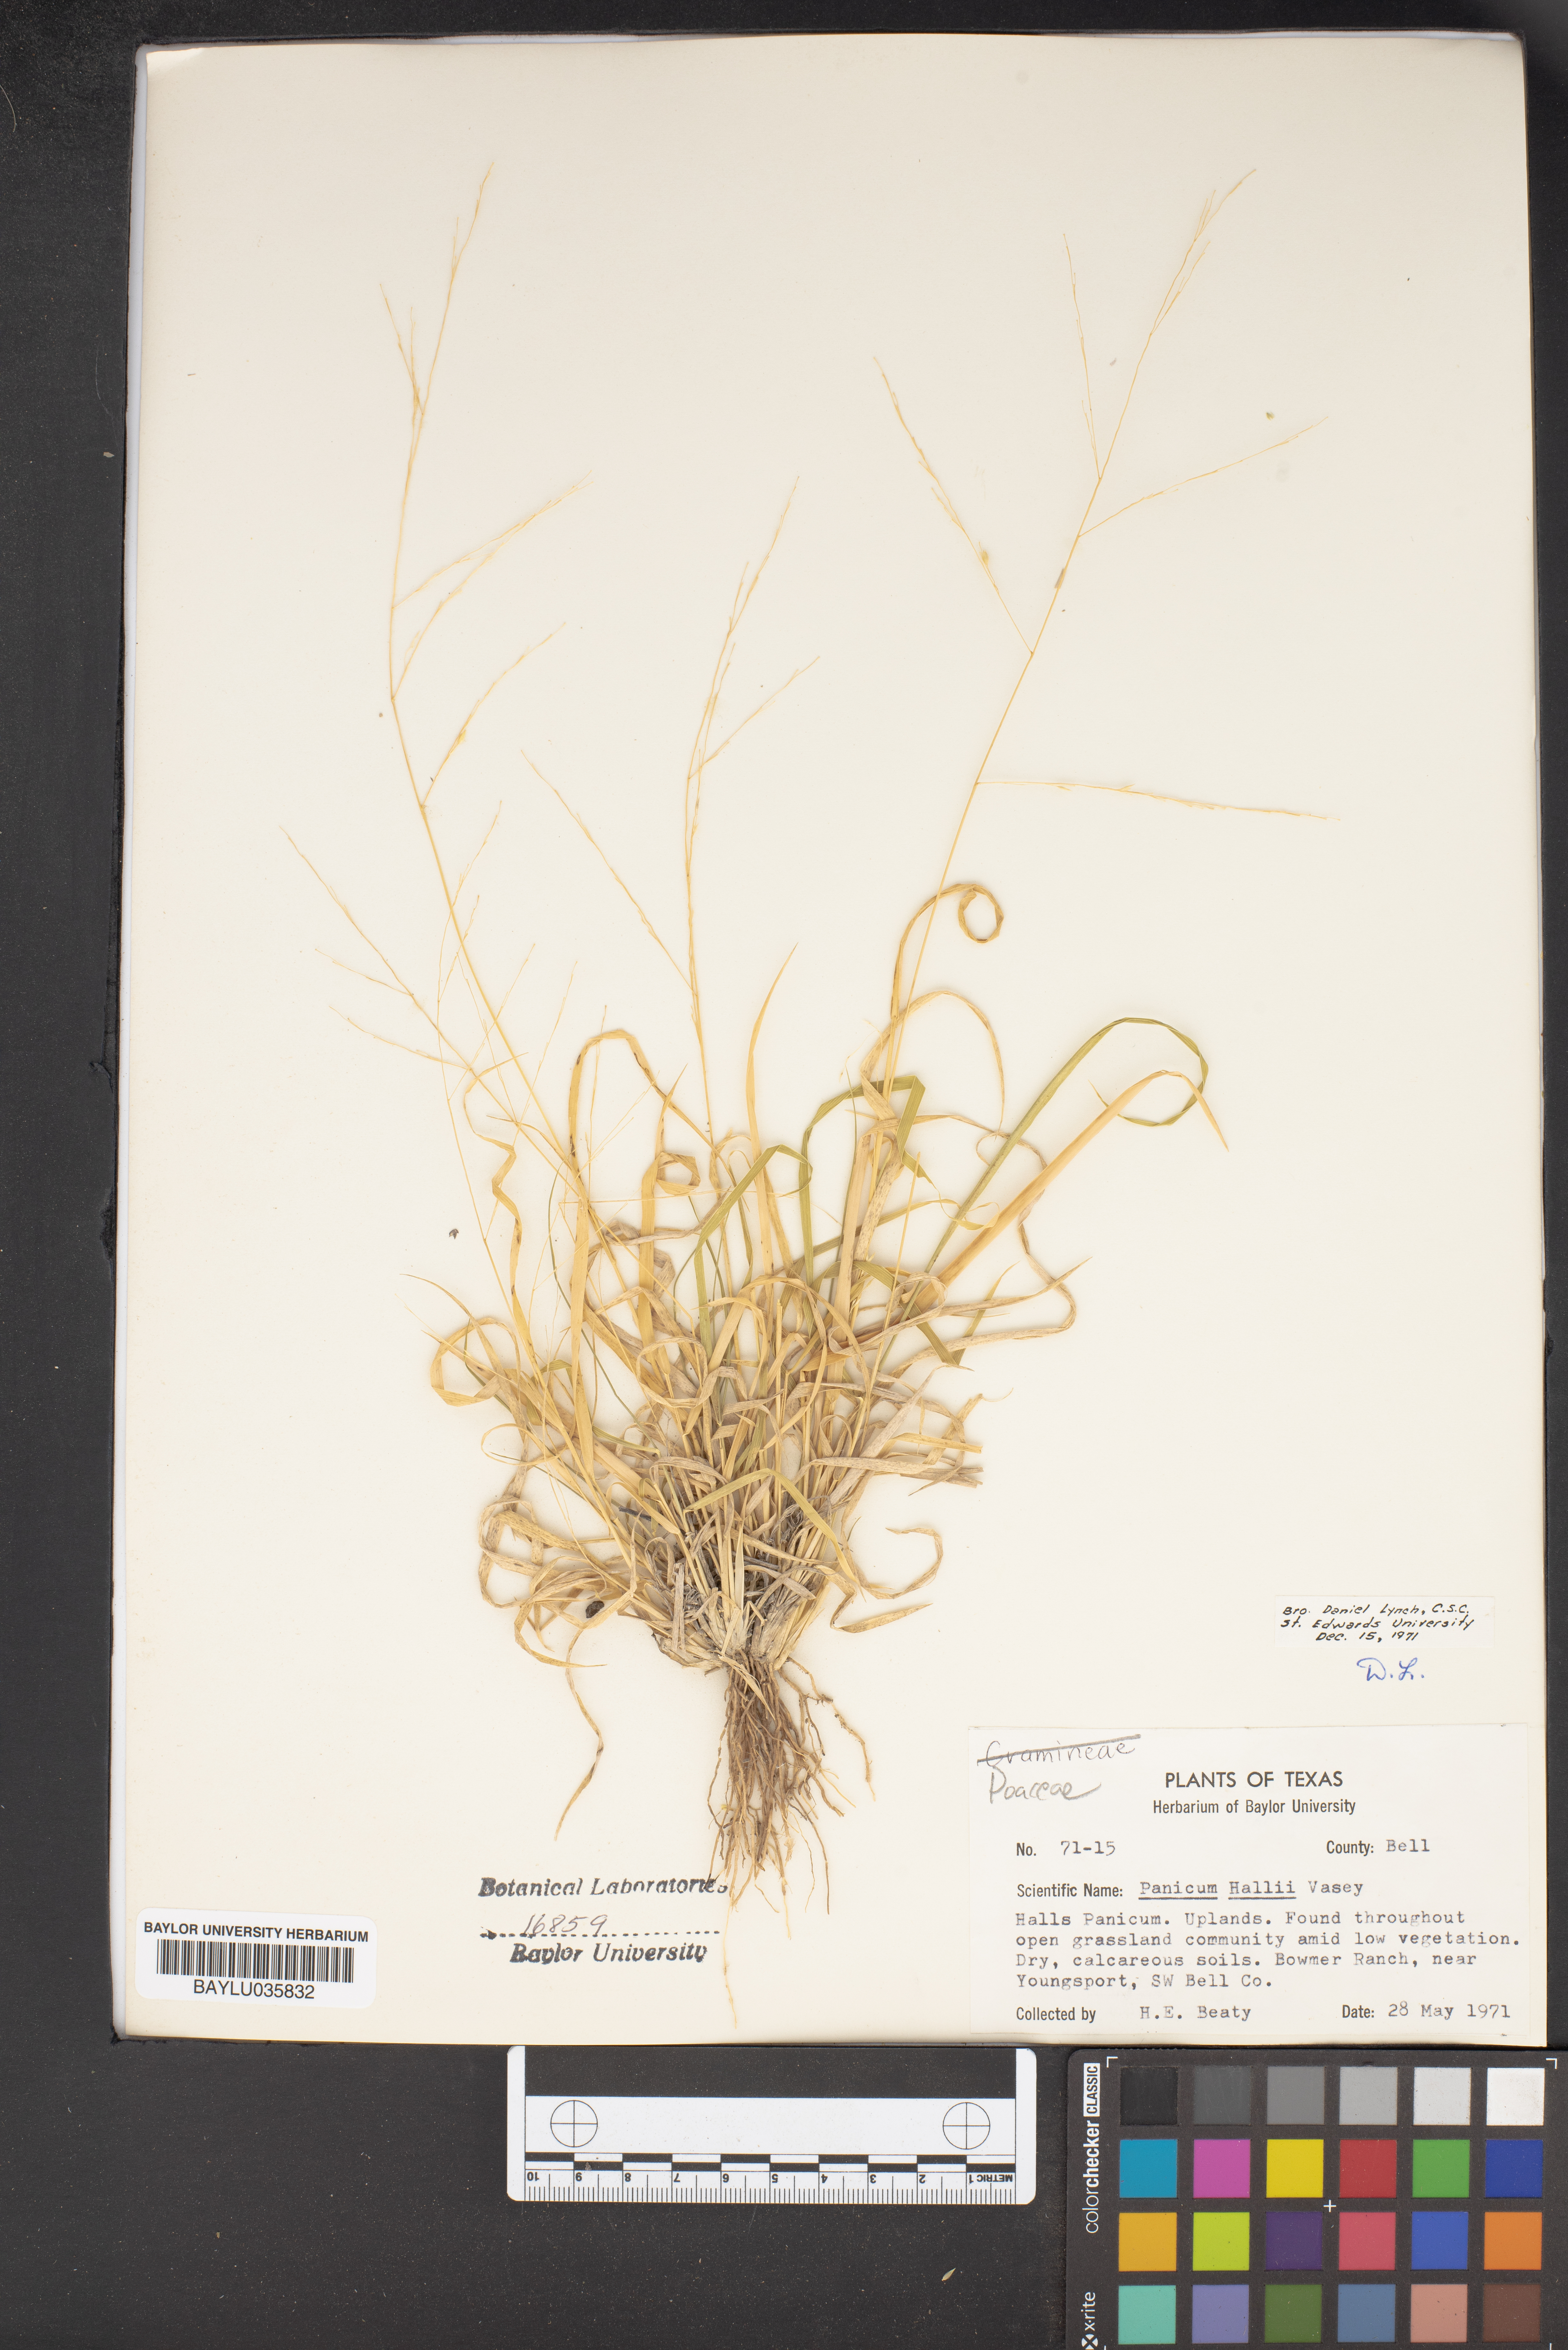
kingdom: Plantae
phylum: Tracheophyta
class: Liliopsida
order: Poales
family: Poaceae
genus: Panicum
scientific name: Panicum hallii
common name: Hall's witchgrass
